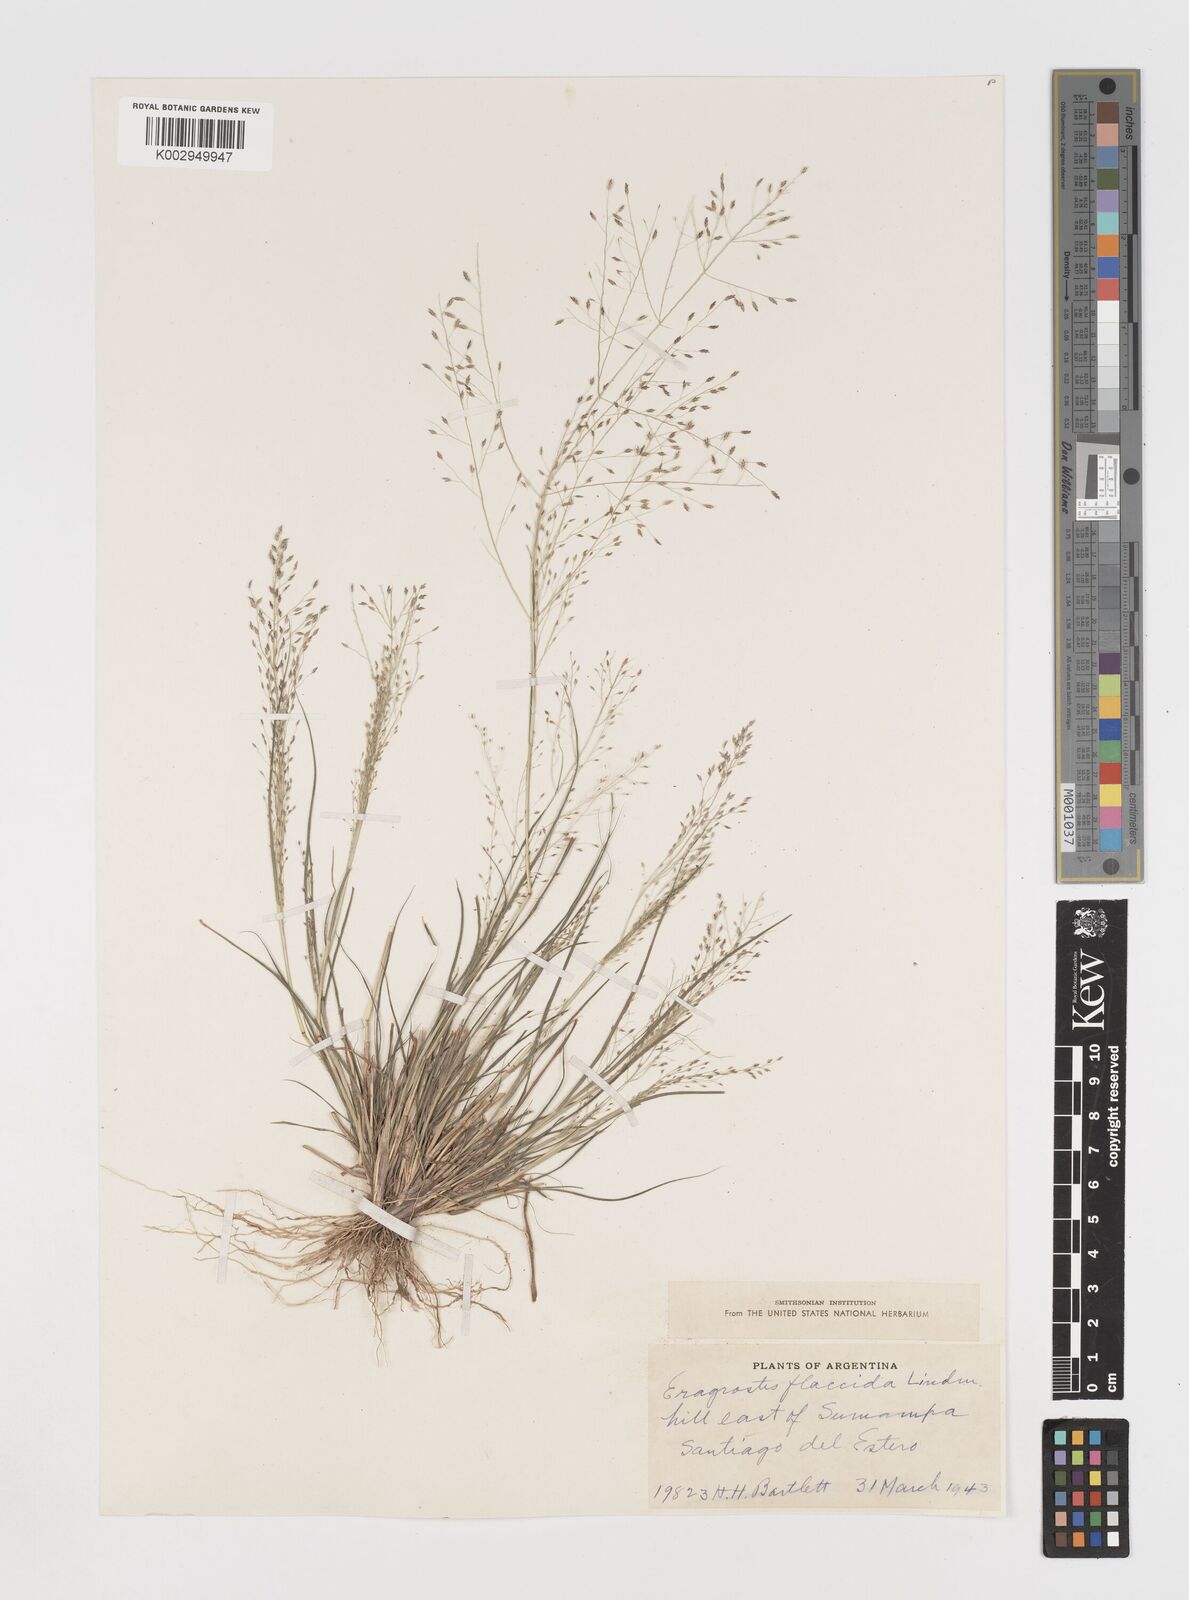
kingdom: Plantae
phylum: Tracheophyta
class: Liliopsida
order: Poales
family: Poaceae
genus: Eragrostis
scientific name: Eragrostis lugens
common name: Mourning love grass
